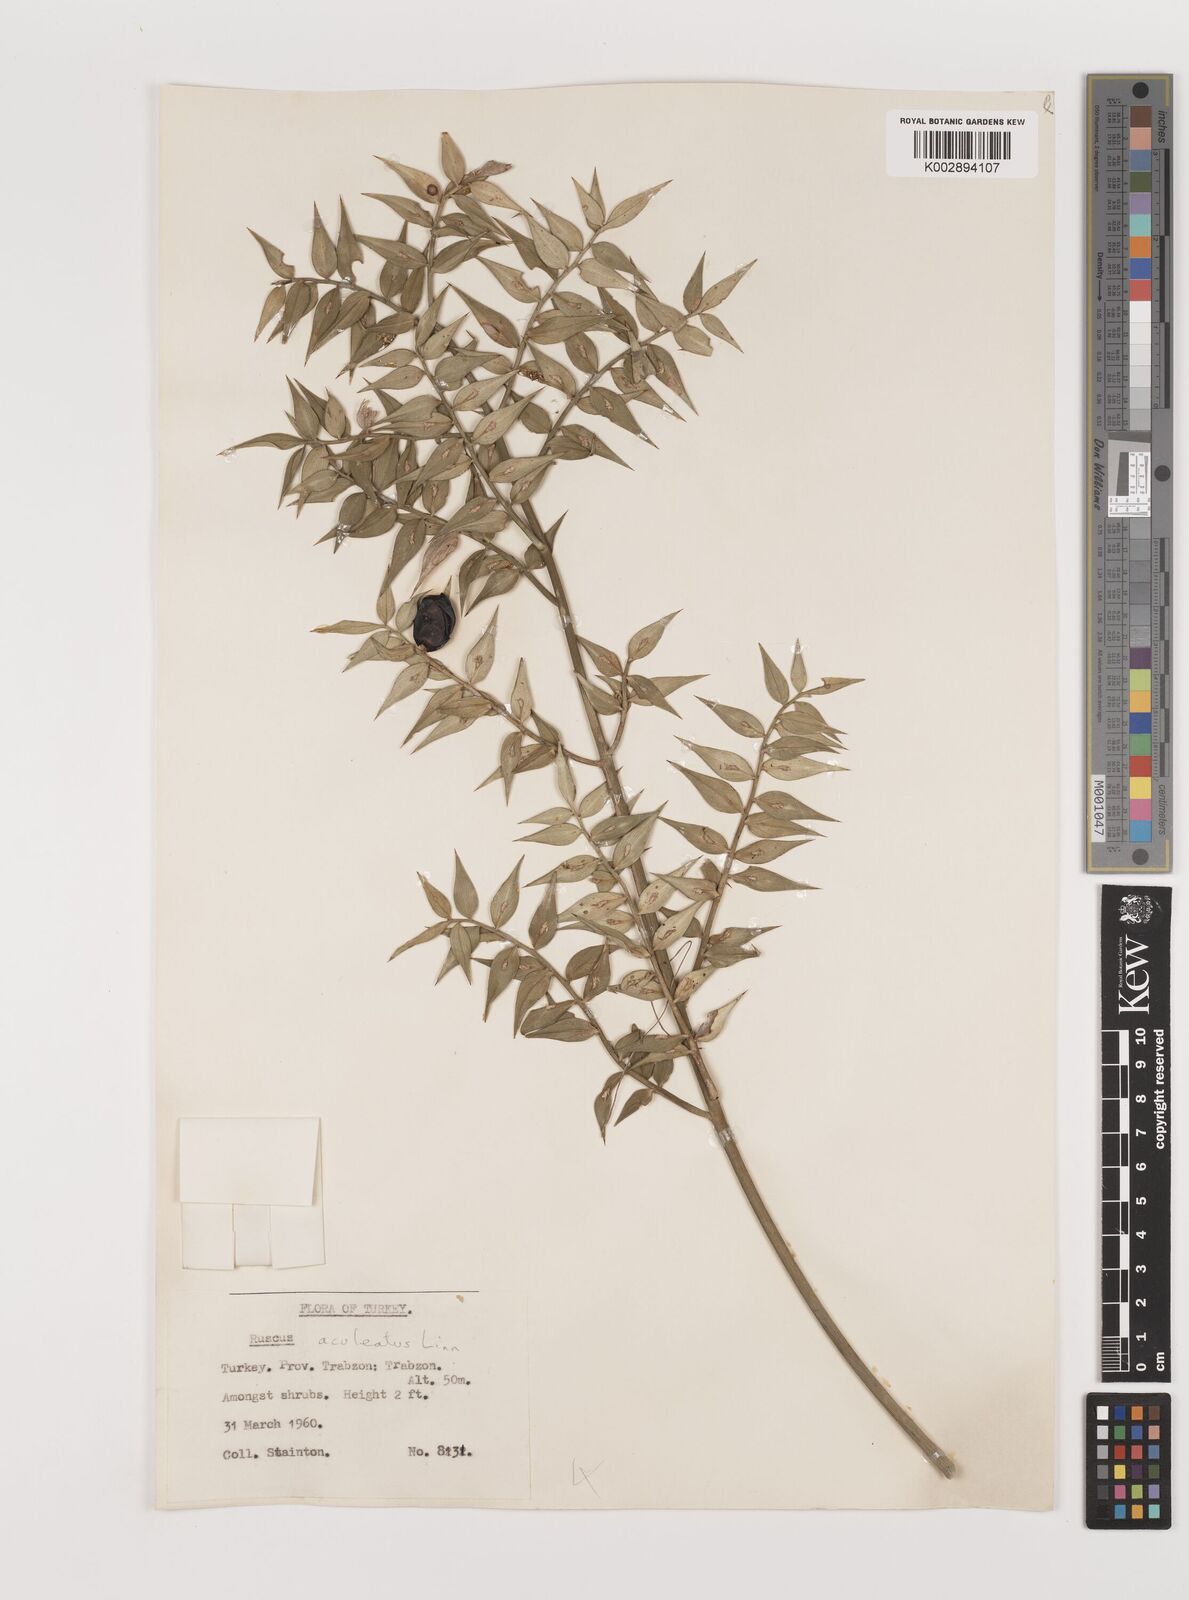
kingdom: Plantae
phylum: Tracheophyta
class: Liliopsida
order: Asparagales
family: Asparagaceae
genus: Ruscus
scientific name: Ruscus aculeatus
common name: Butcher's-broom
